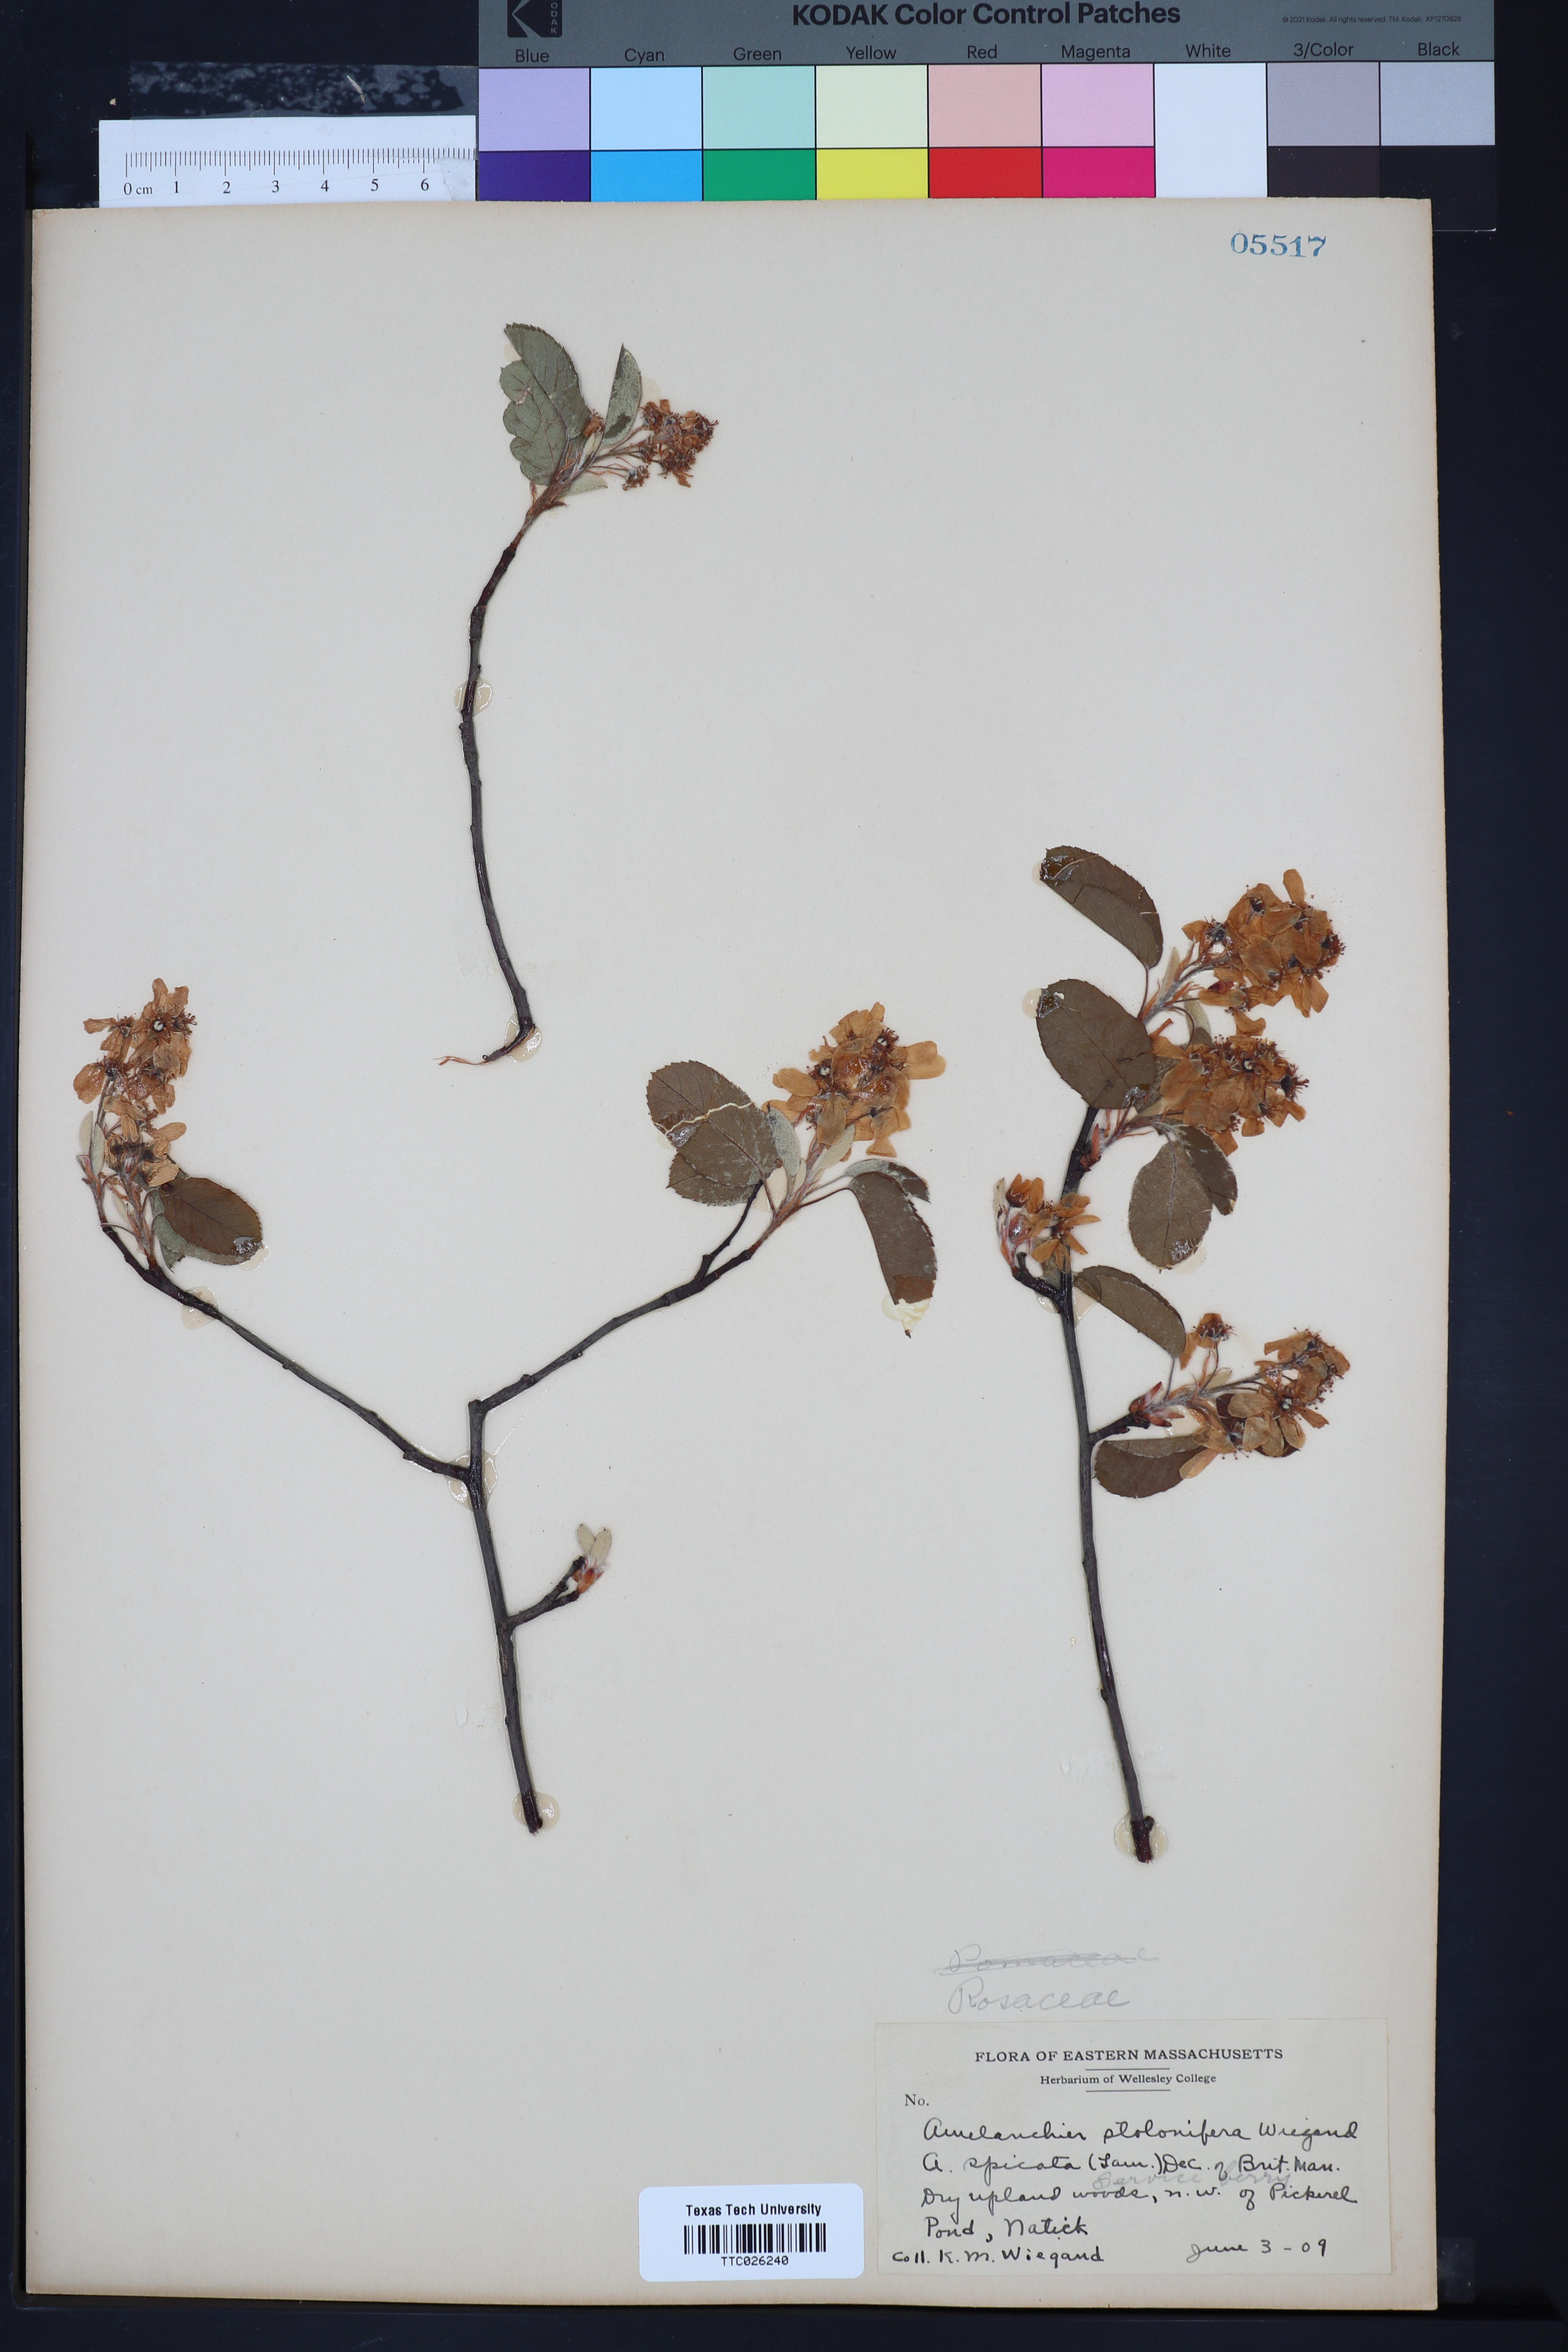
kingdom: Plantae
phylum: Tracheophyta
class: Magnoliopsida
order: Rosales
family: Rosaceae
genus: Amelanchier
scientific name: Amelanchier humilis
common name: Low juneberry
